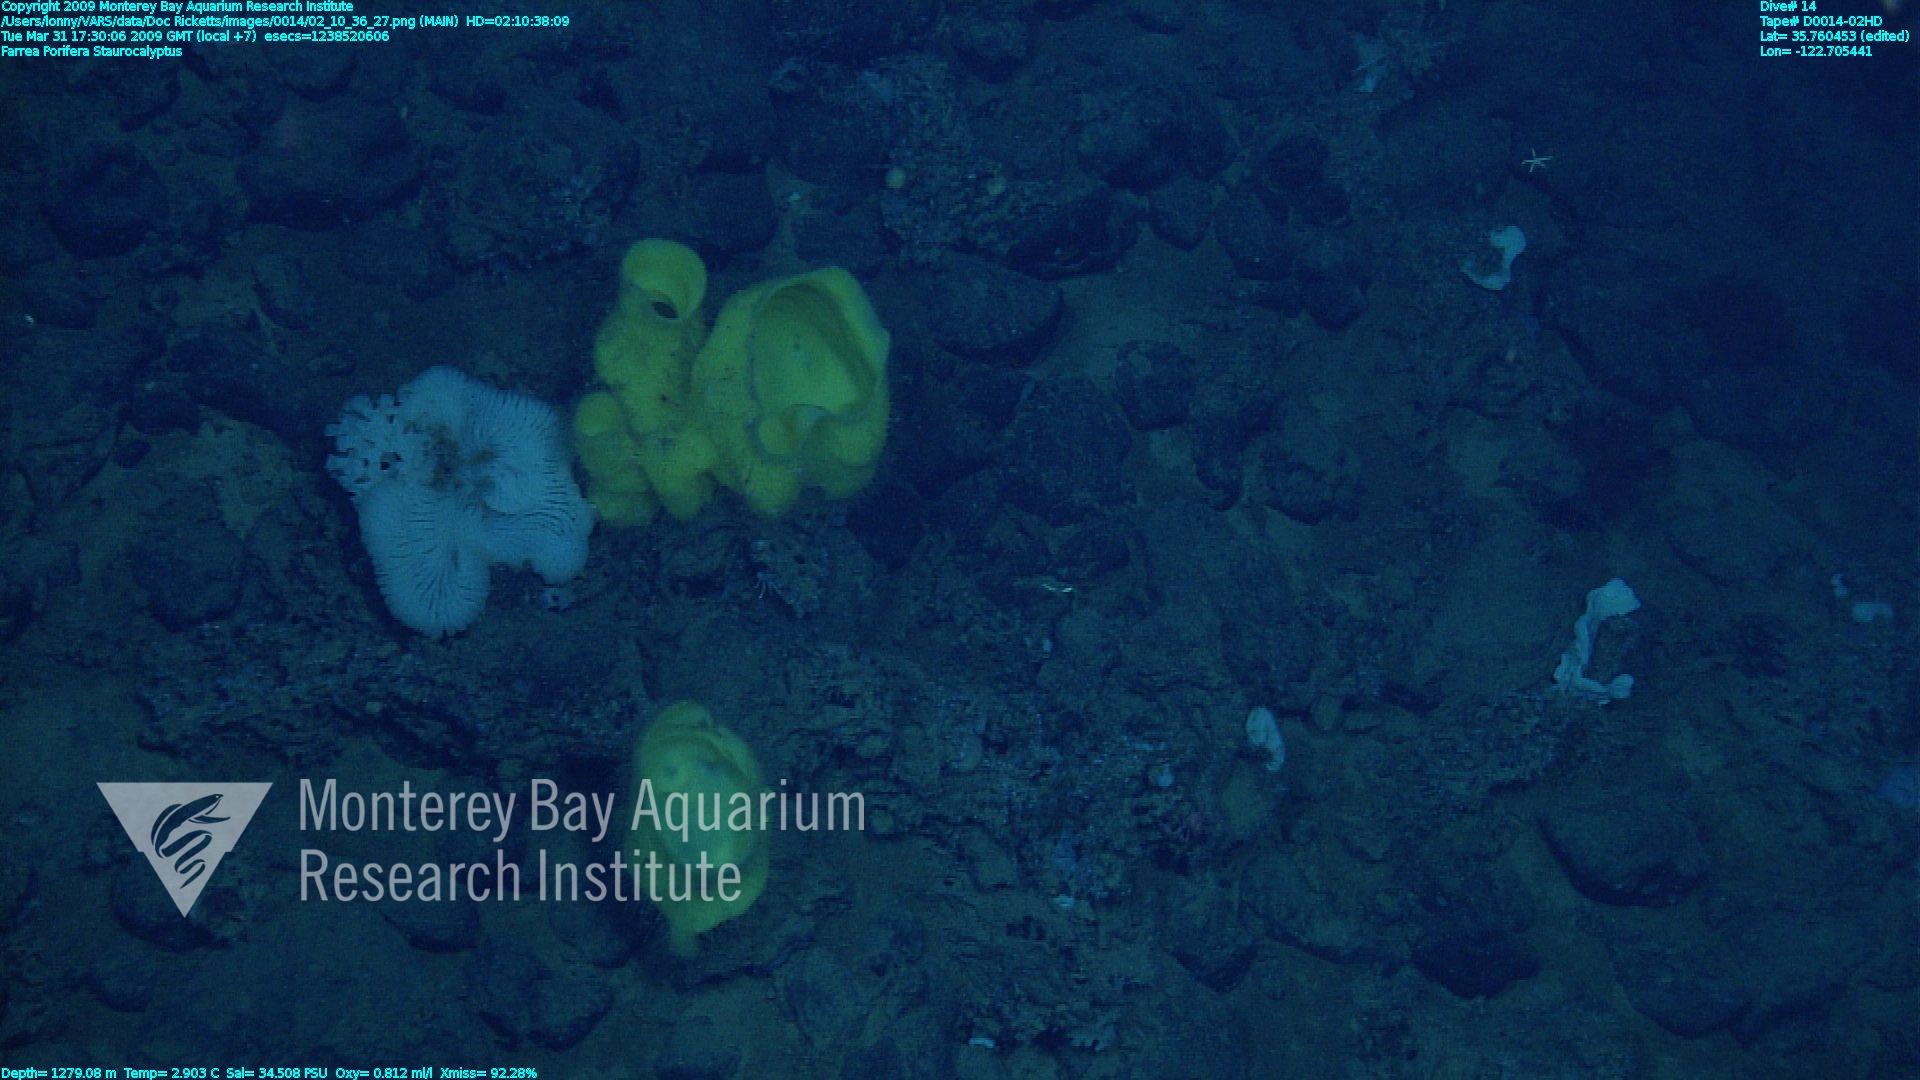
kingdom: Animalia
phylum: Porifera
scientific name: Porifera
